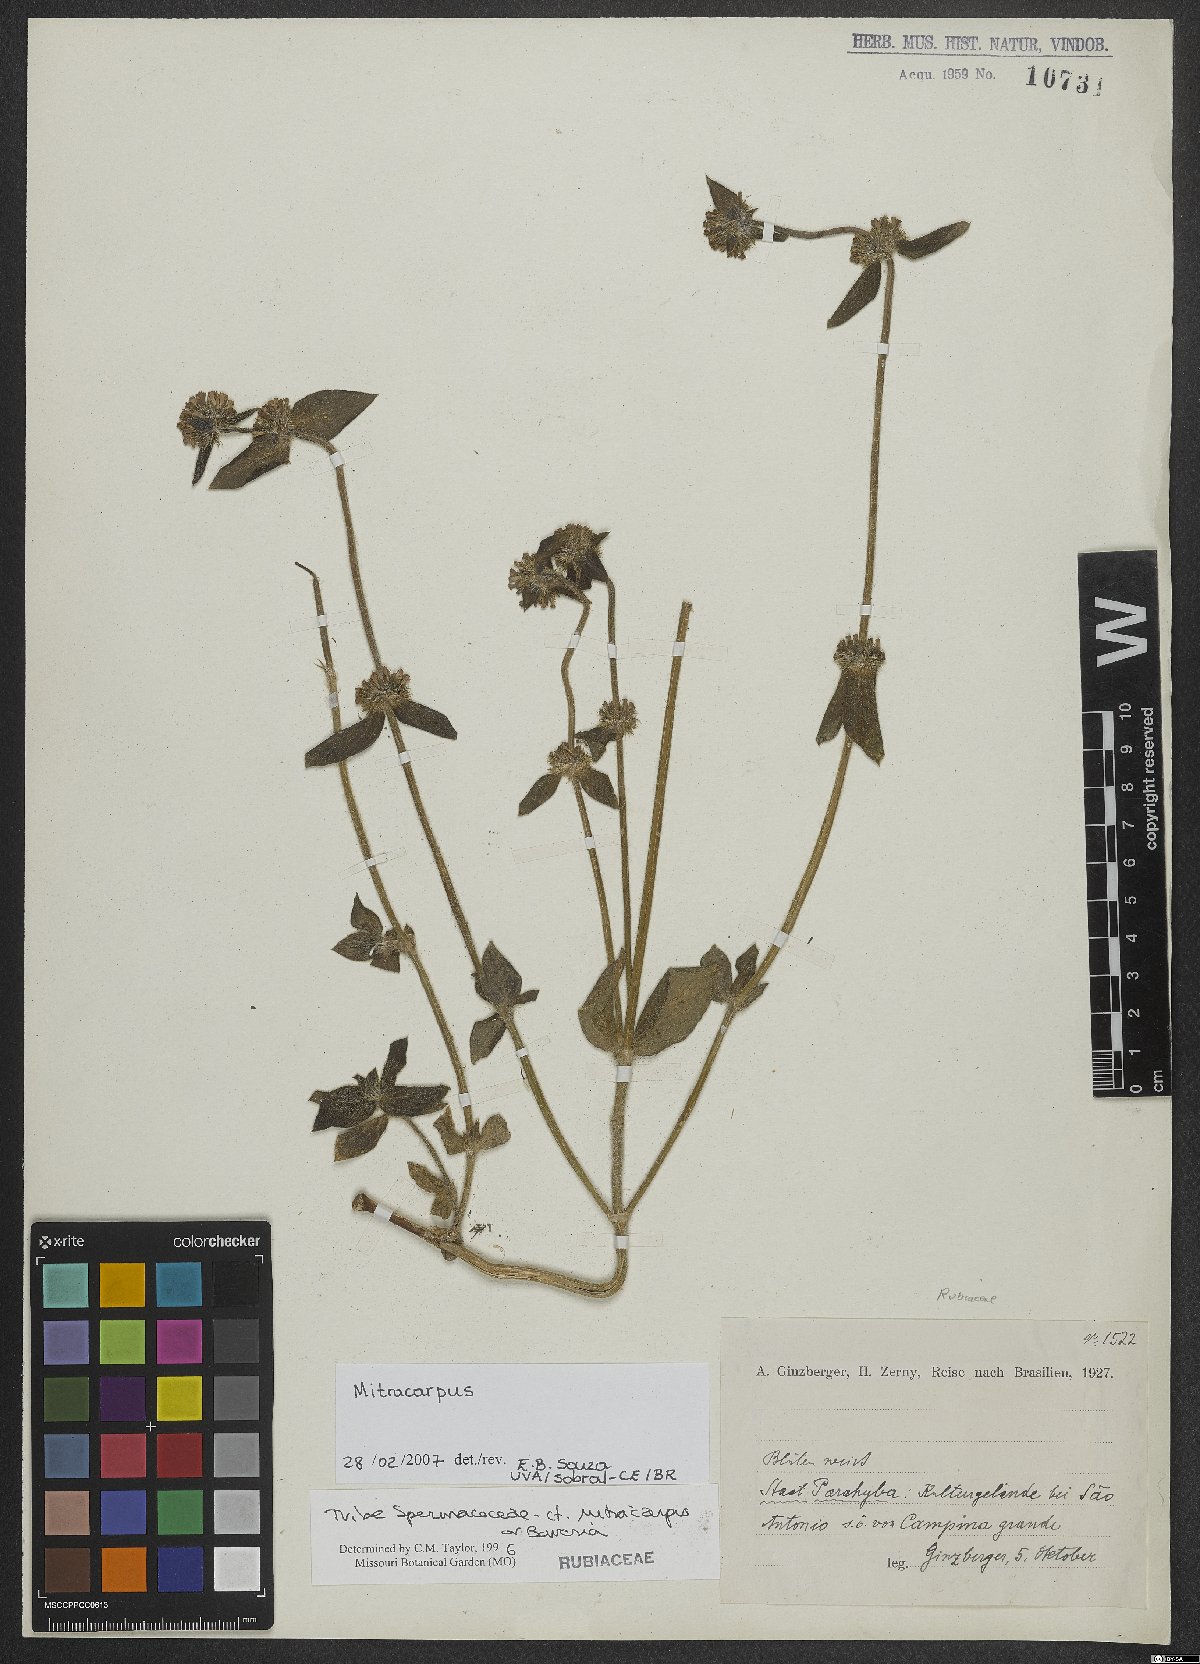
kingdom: Plantae
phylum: Tracheophyta
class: Magnoliopsida
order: Gentianales
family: Rubiaceae
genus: Mitracarpus
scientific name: Mitracarpus
